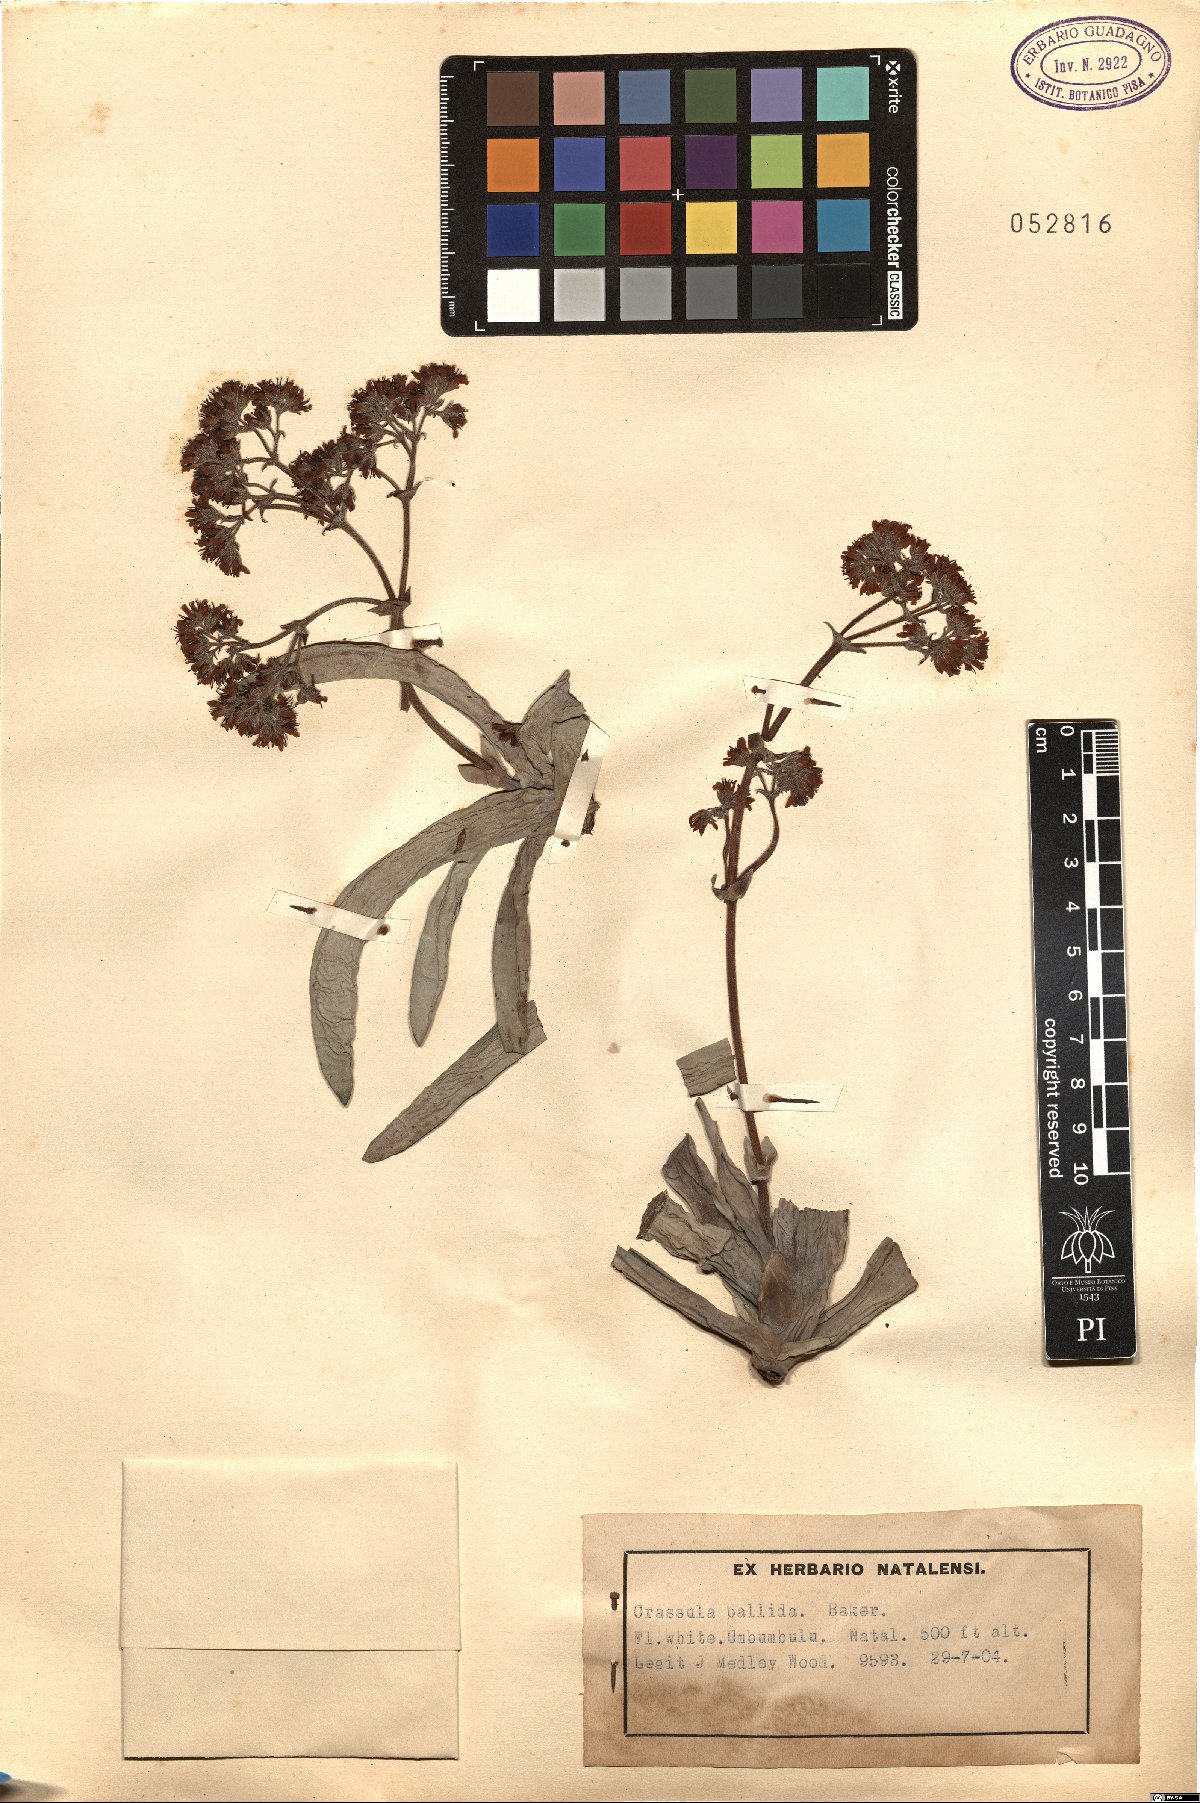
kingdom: Plantae
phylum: Tracheophyta
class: Magnoliopsida
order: Saxifragales
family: Crassulaceae
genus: Crassula
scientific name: Crassula perfoliata
